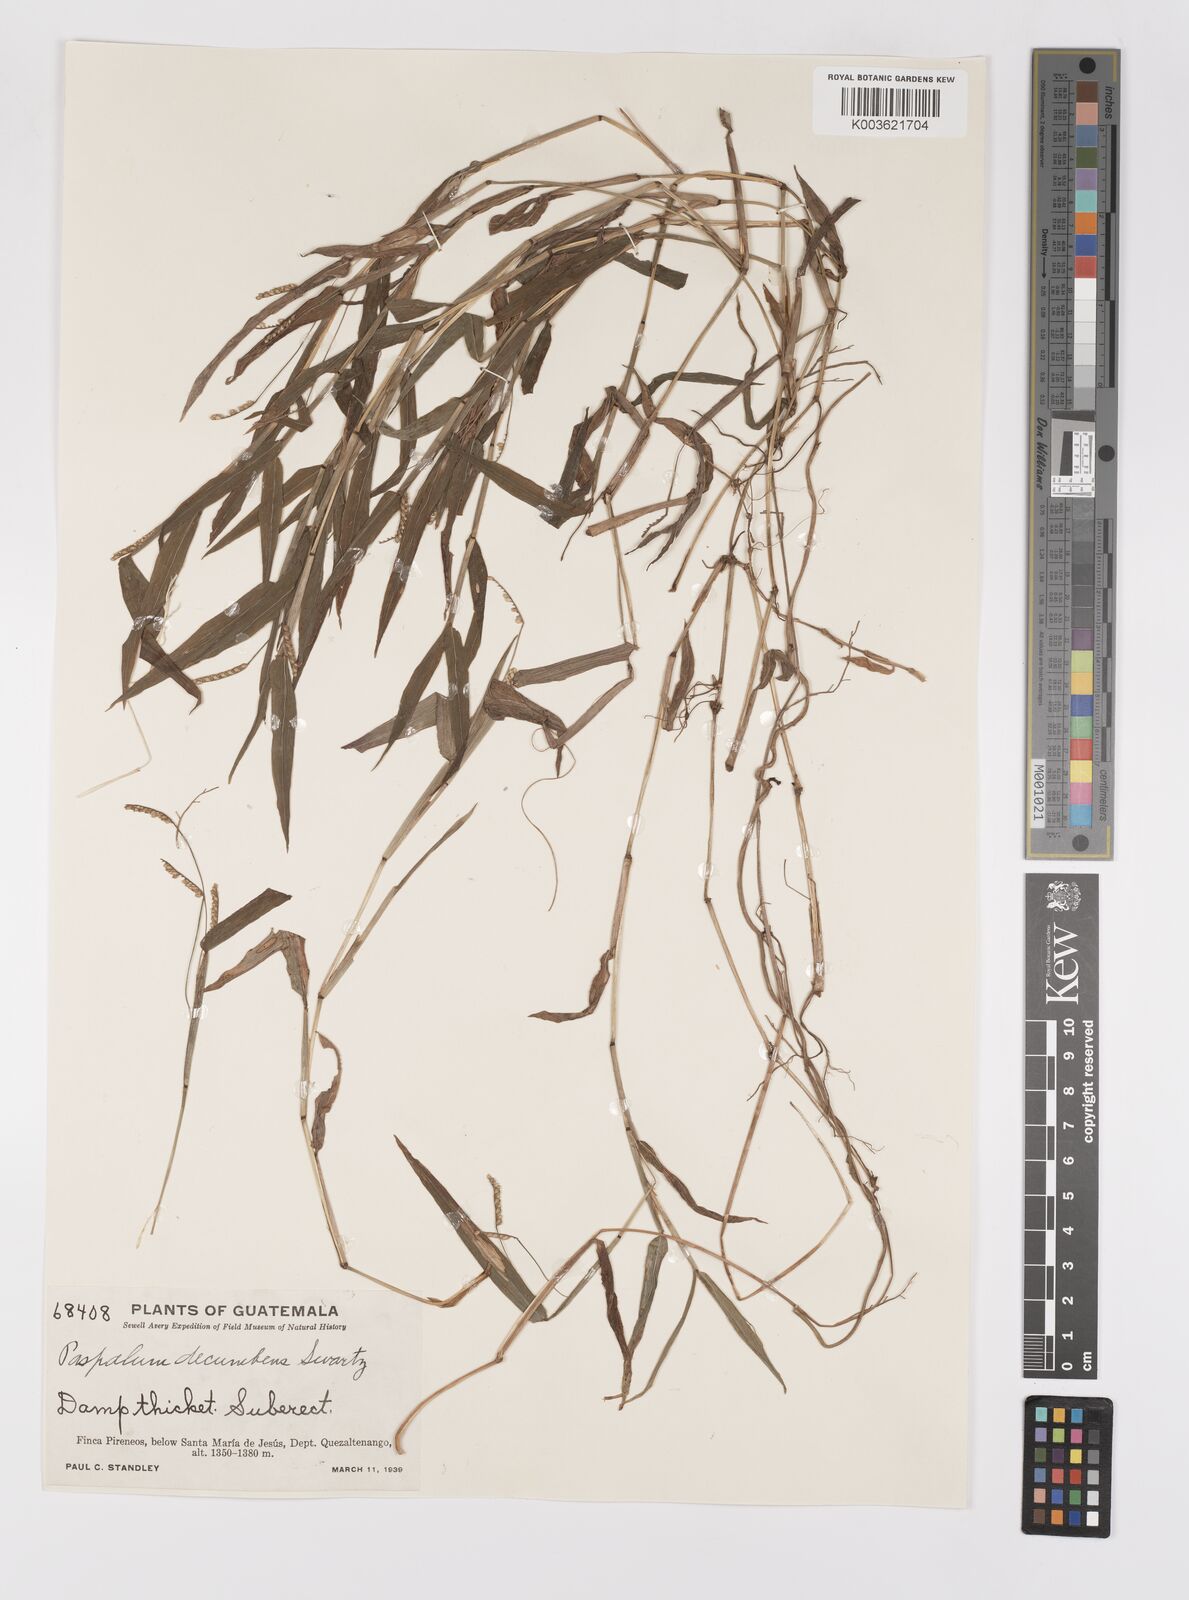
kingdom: Plantae
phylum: Tracheophyta
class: Liliopsida
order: Poales
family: Poaceae
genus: Paspalum
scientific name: Paspalum
